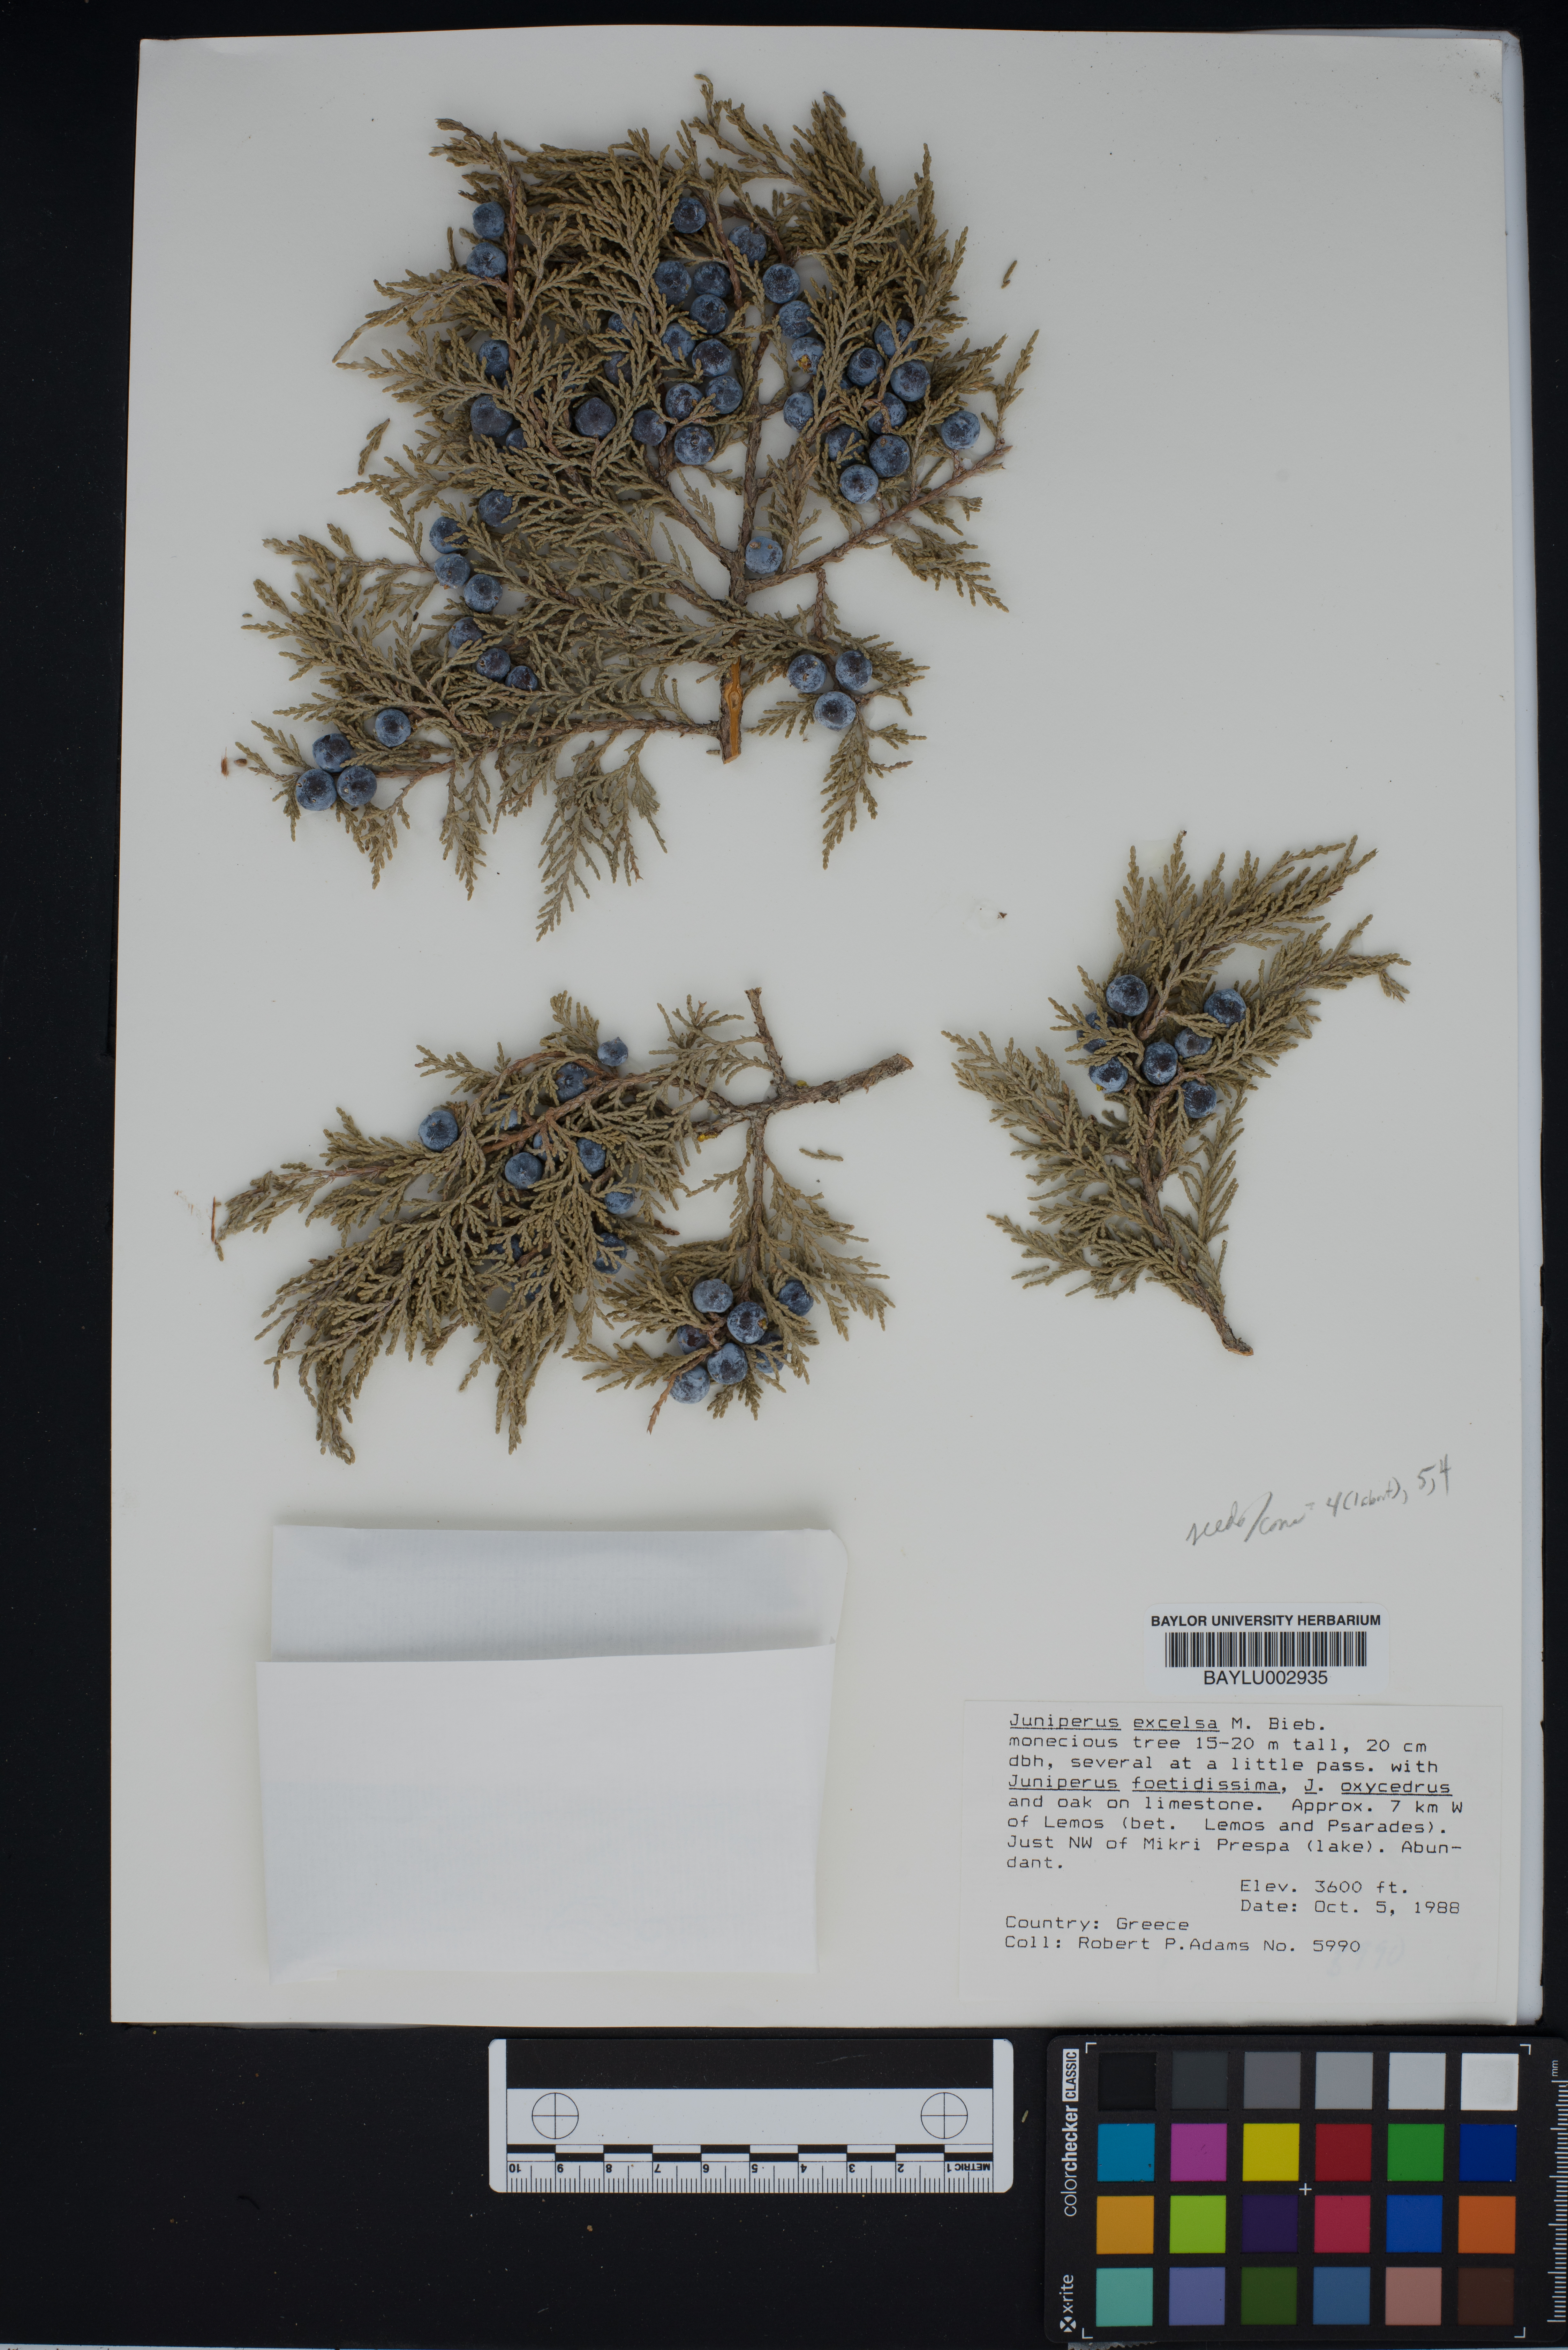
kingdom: Plantae
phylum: Tracheophyta
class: Pinopsida
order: Pinales
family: Cupressaceae
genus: Juniperus
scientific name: Juniperus excelsa
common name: Crimean juniper
